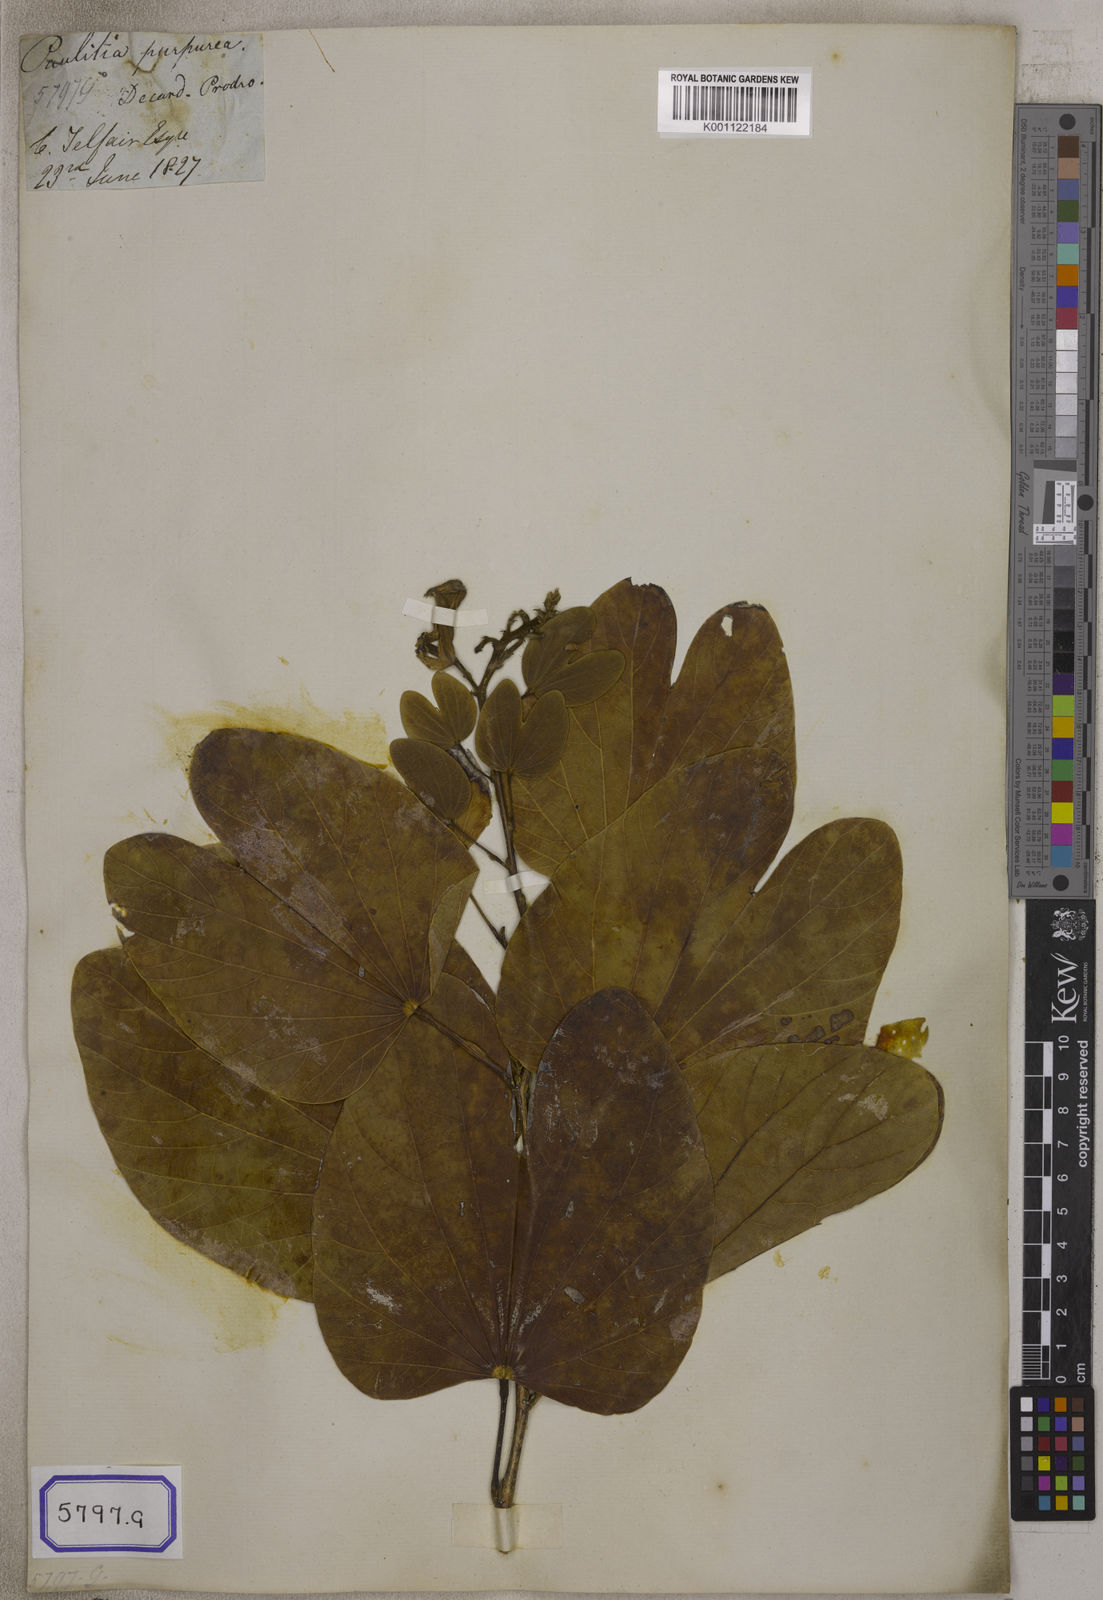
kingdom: Plantae
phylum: Tracheophyta
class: Magnoliopsida
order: Fabales
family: Fabaceae
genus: Bauhinia
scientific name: Bauhinia
